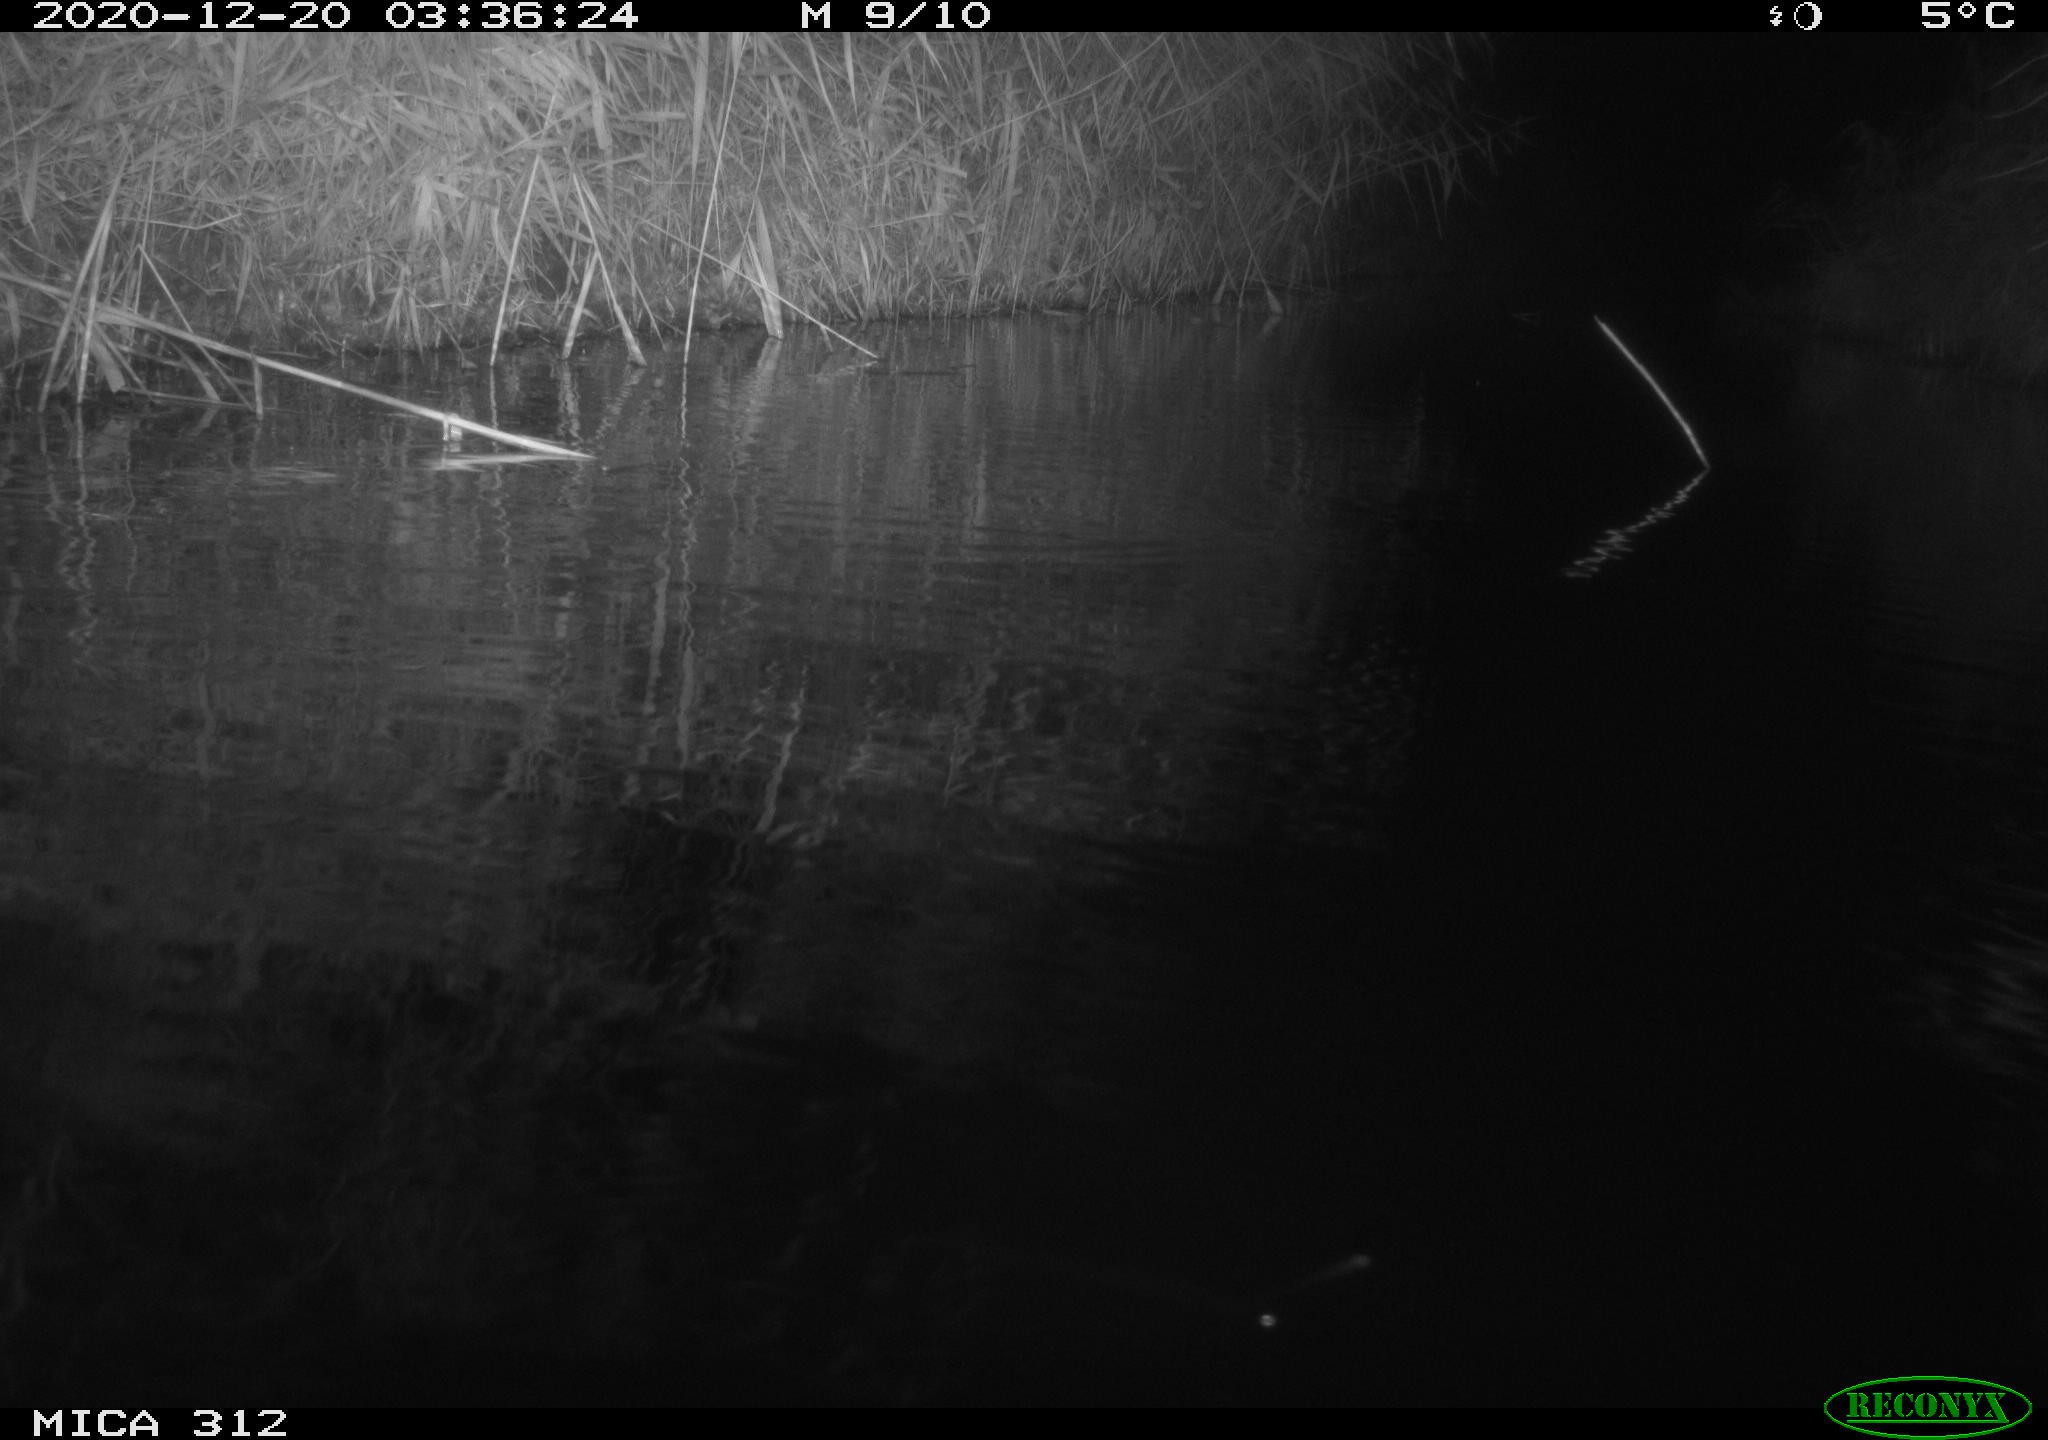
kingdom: Animalia
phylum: Chordata
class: Mammalia
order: Rodentia
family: Muridae
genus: Rattus
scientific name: Rattus norvegicus
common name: Brown rat
